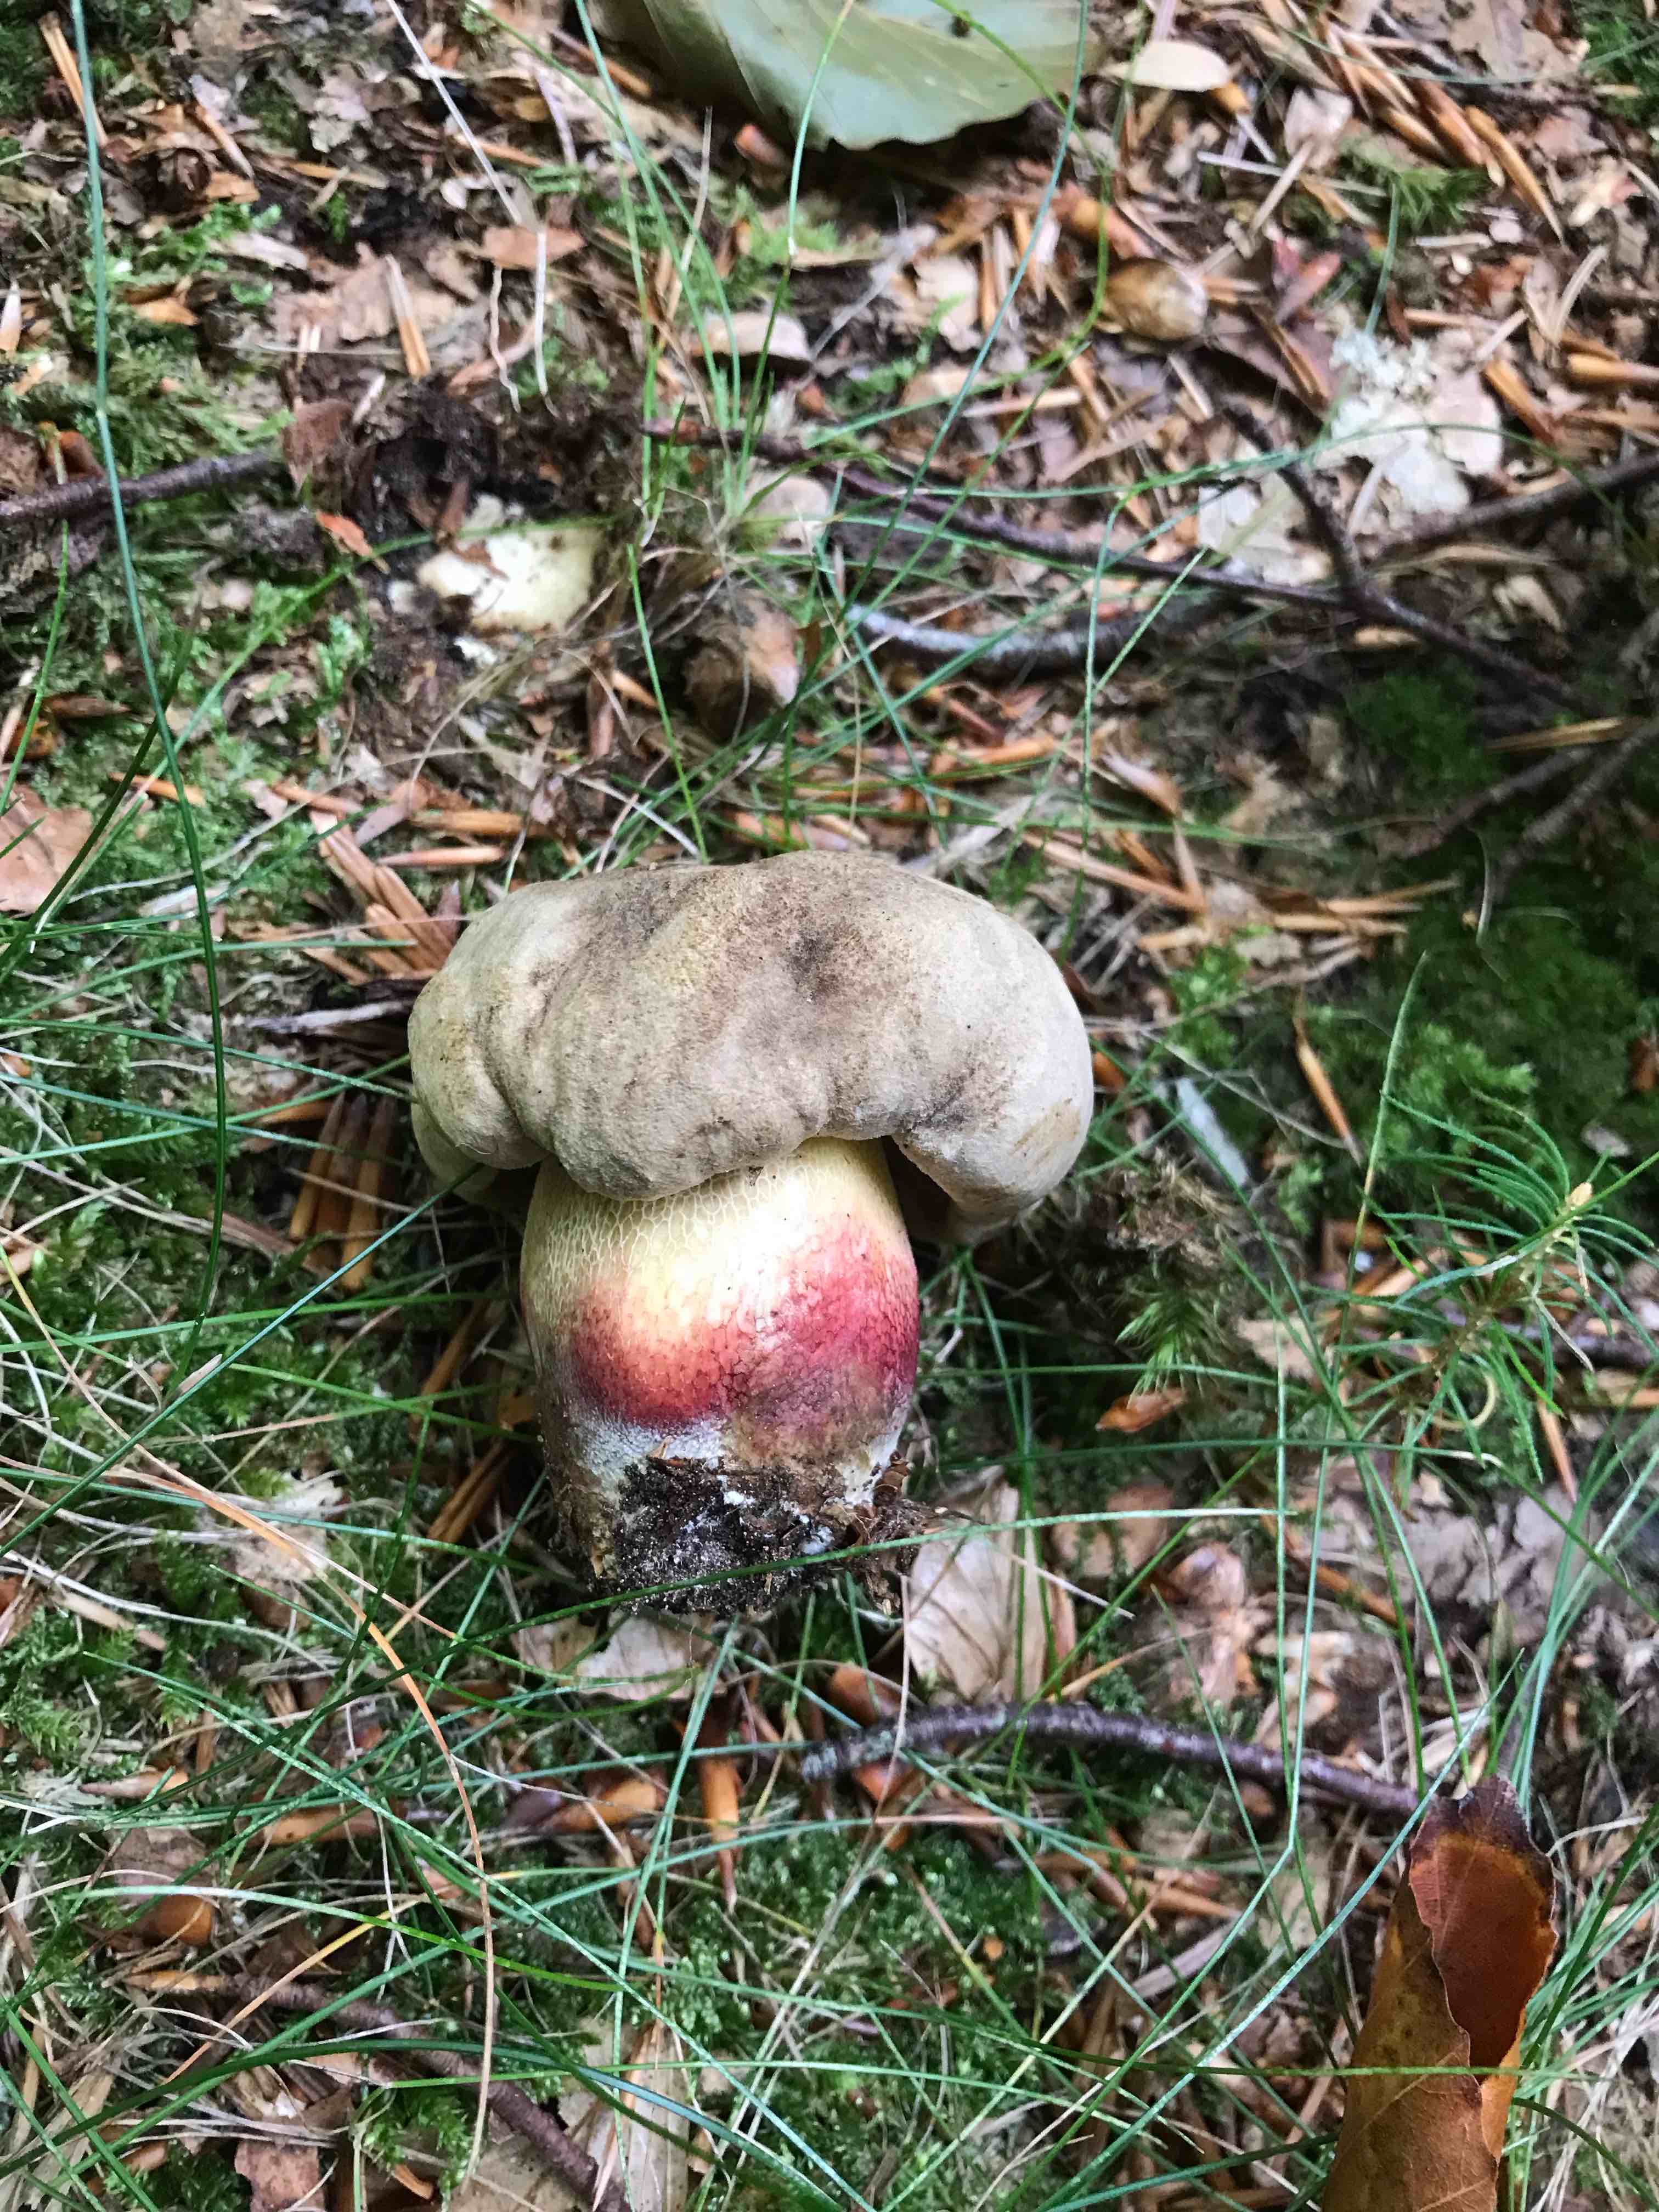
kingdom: Fungi
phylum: Basidiomycota
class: Agaricomycetes
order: Boletales
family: Boletaceae
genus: Caloboletus
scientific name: Caloboletus calopus
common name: skønfodet rørhat
